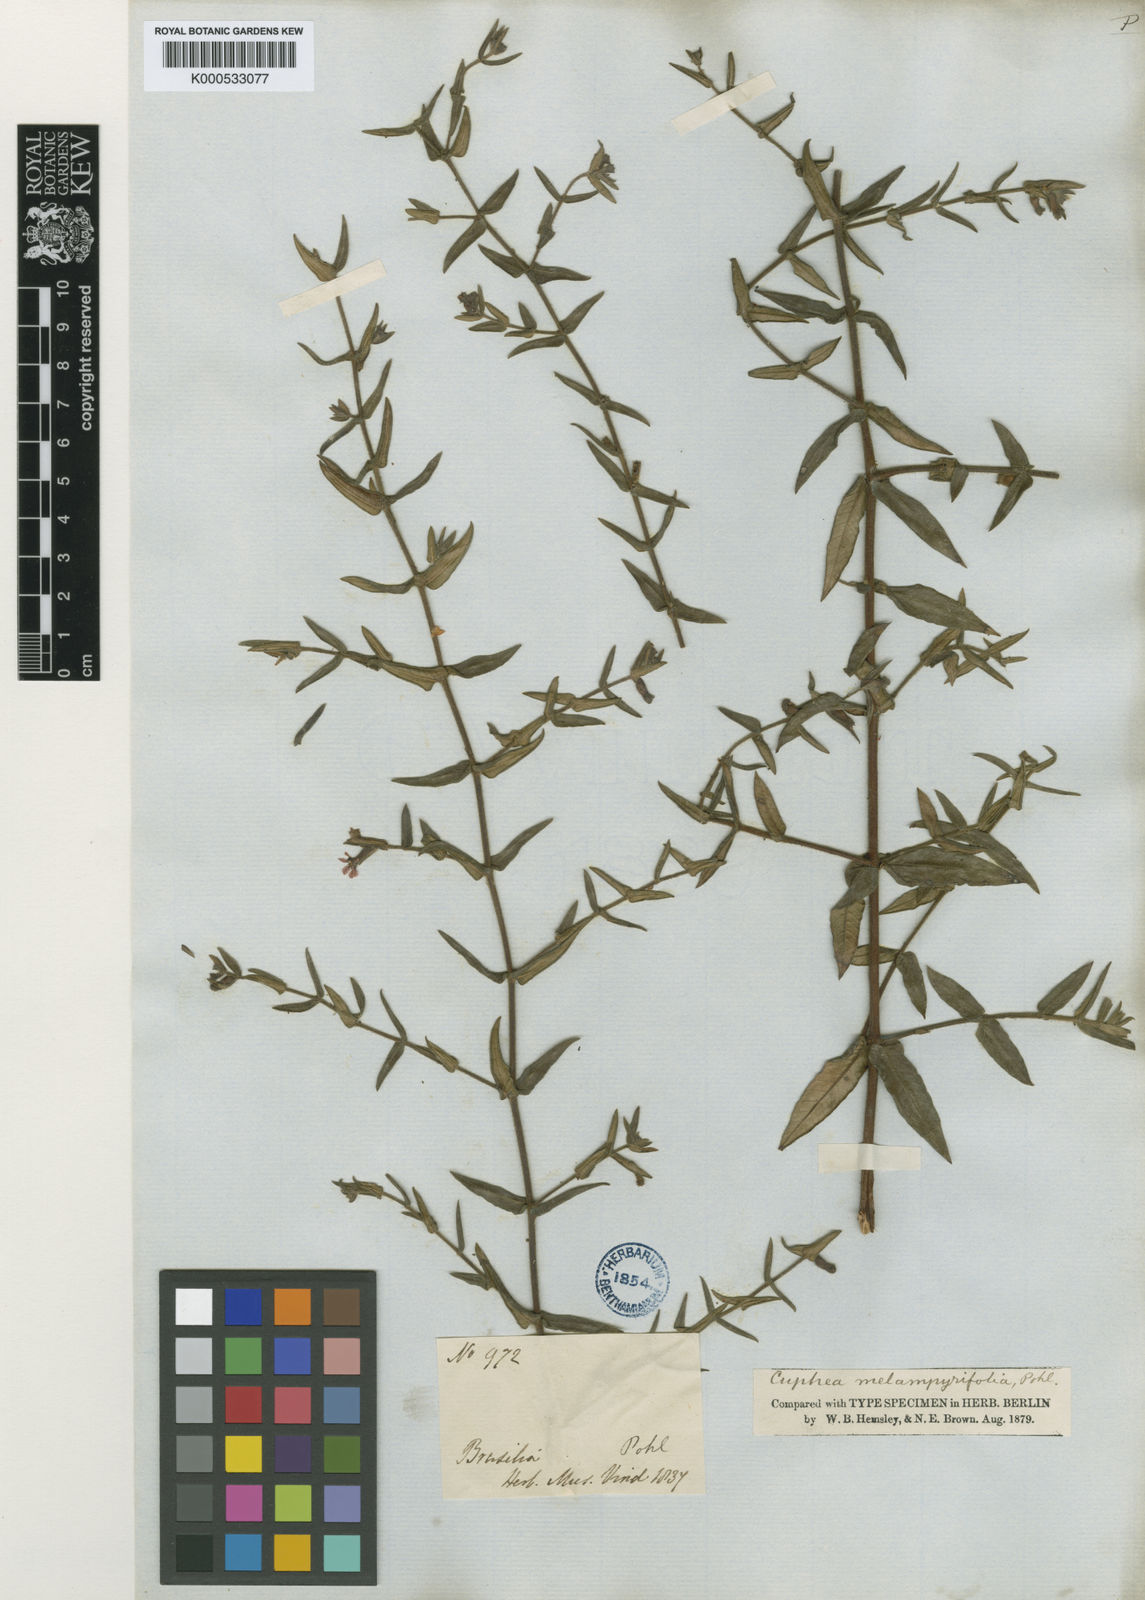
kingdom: Plantae
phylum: Tracheophyta
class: Magnoliopsida
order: Myrtales
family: Lythraceae
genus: Cuphea
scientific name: Cuphea
